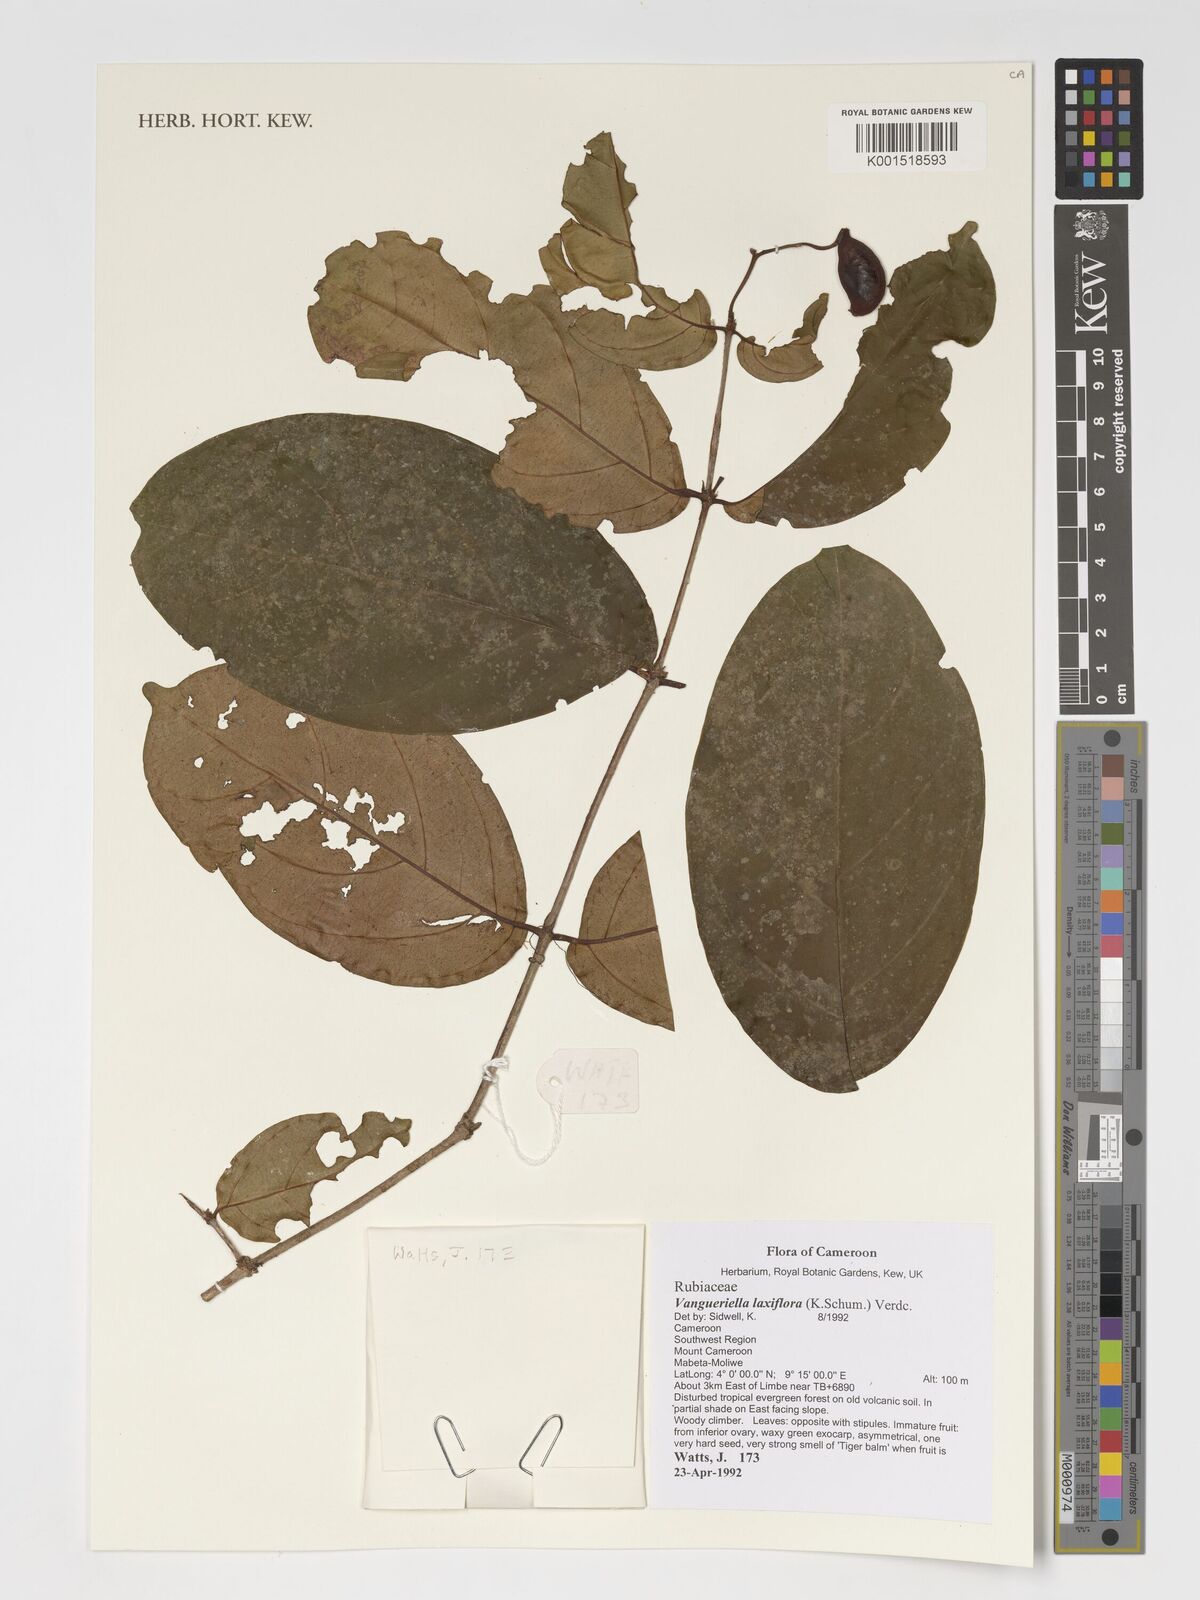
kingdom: Plantae
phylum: Tracheophyta
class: Magnoliopsida
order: Gentianales
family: Rubiaceae
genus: Vangueriella
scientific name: Vangueriella laxiflora
